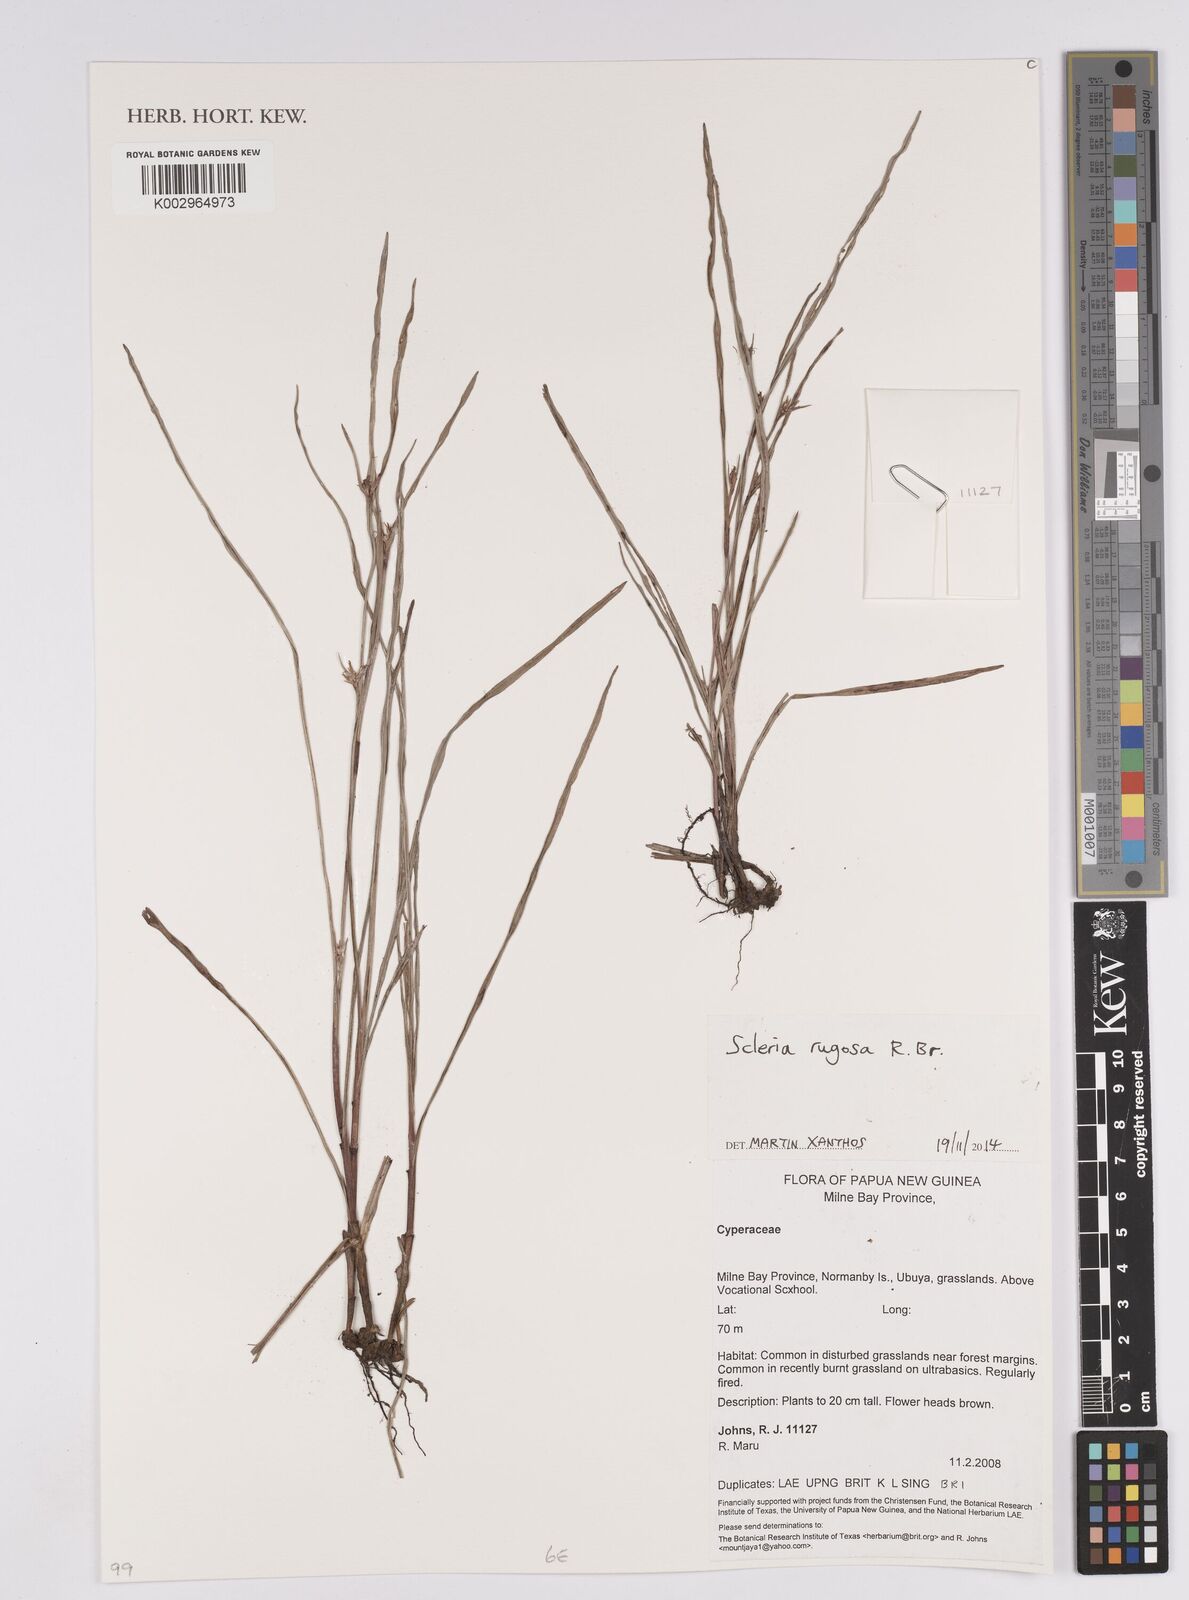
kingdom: Plantae
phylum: Tracheophyta
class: Liliopsida
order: Poales
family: Cyperaceae
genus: Scleria
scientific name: Scleria rugosa
